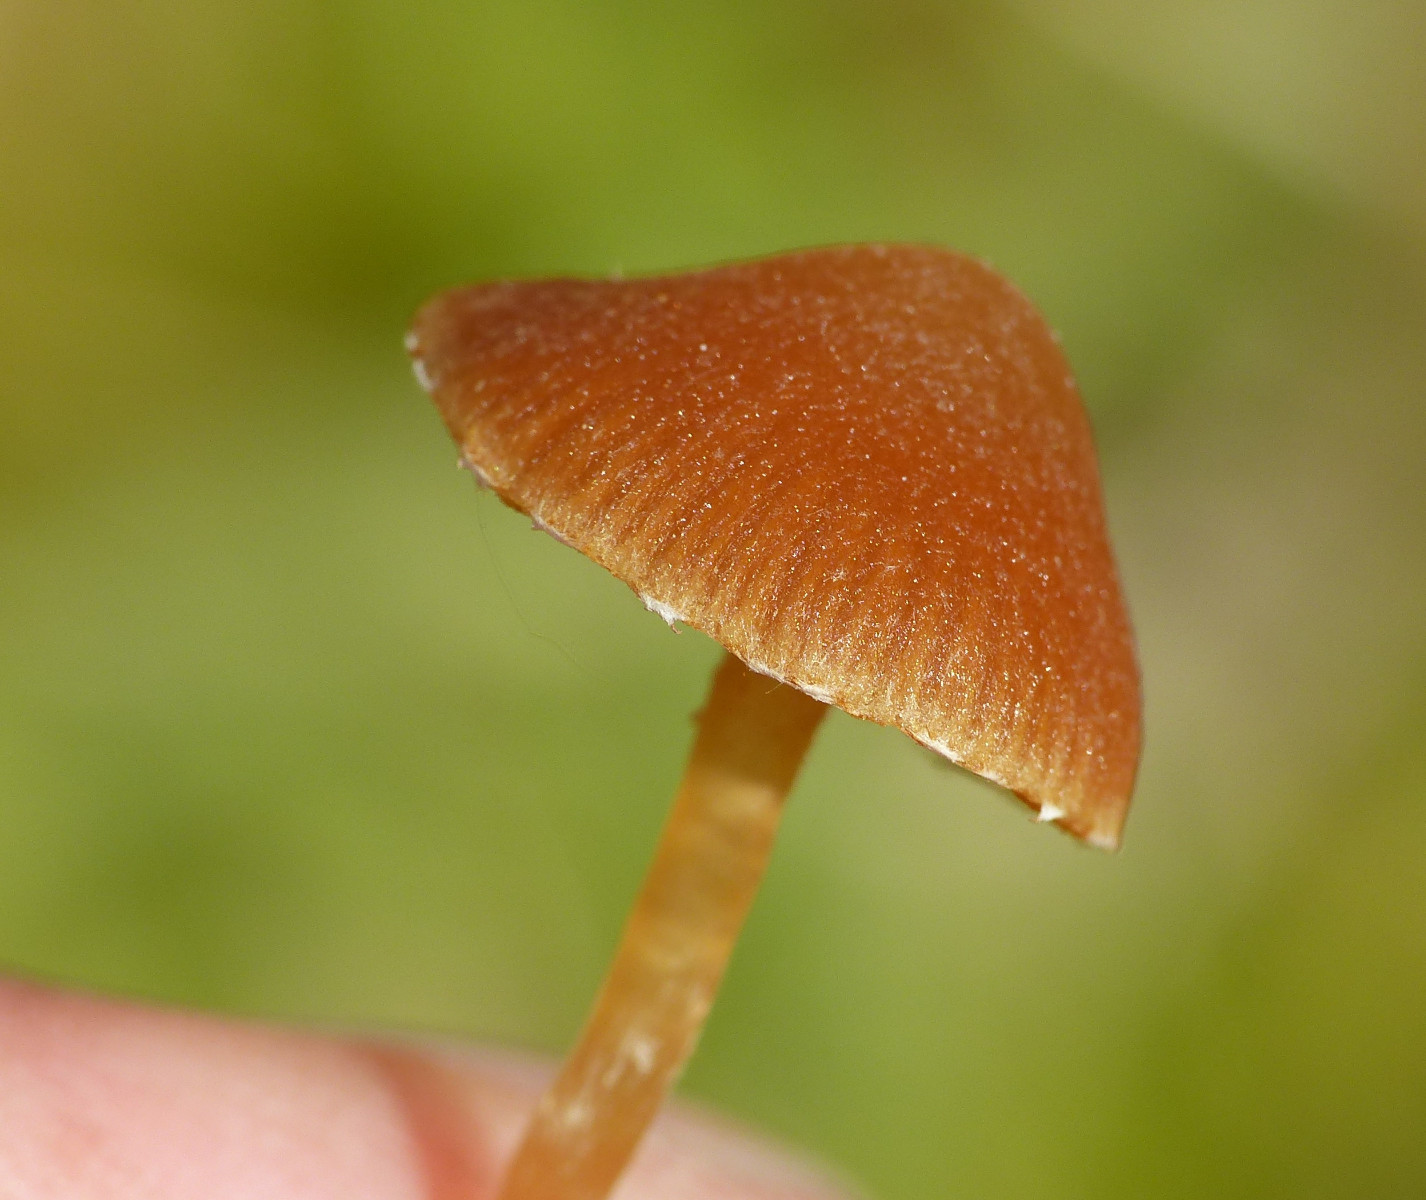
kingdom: Fungi
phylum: Basidiomycota
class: Agaricomycetes
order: Agaricales
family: Hymenogastraceae
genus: Galerina
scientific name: Galerina paludosa
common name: mose-hjelmhat
